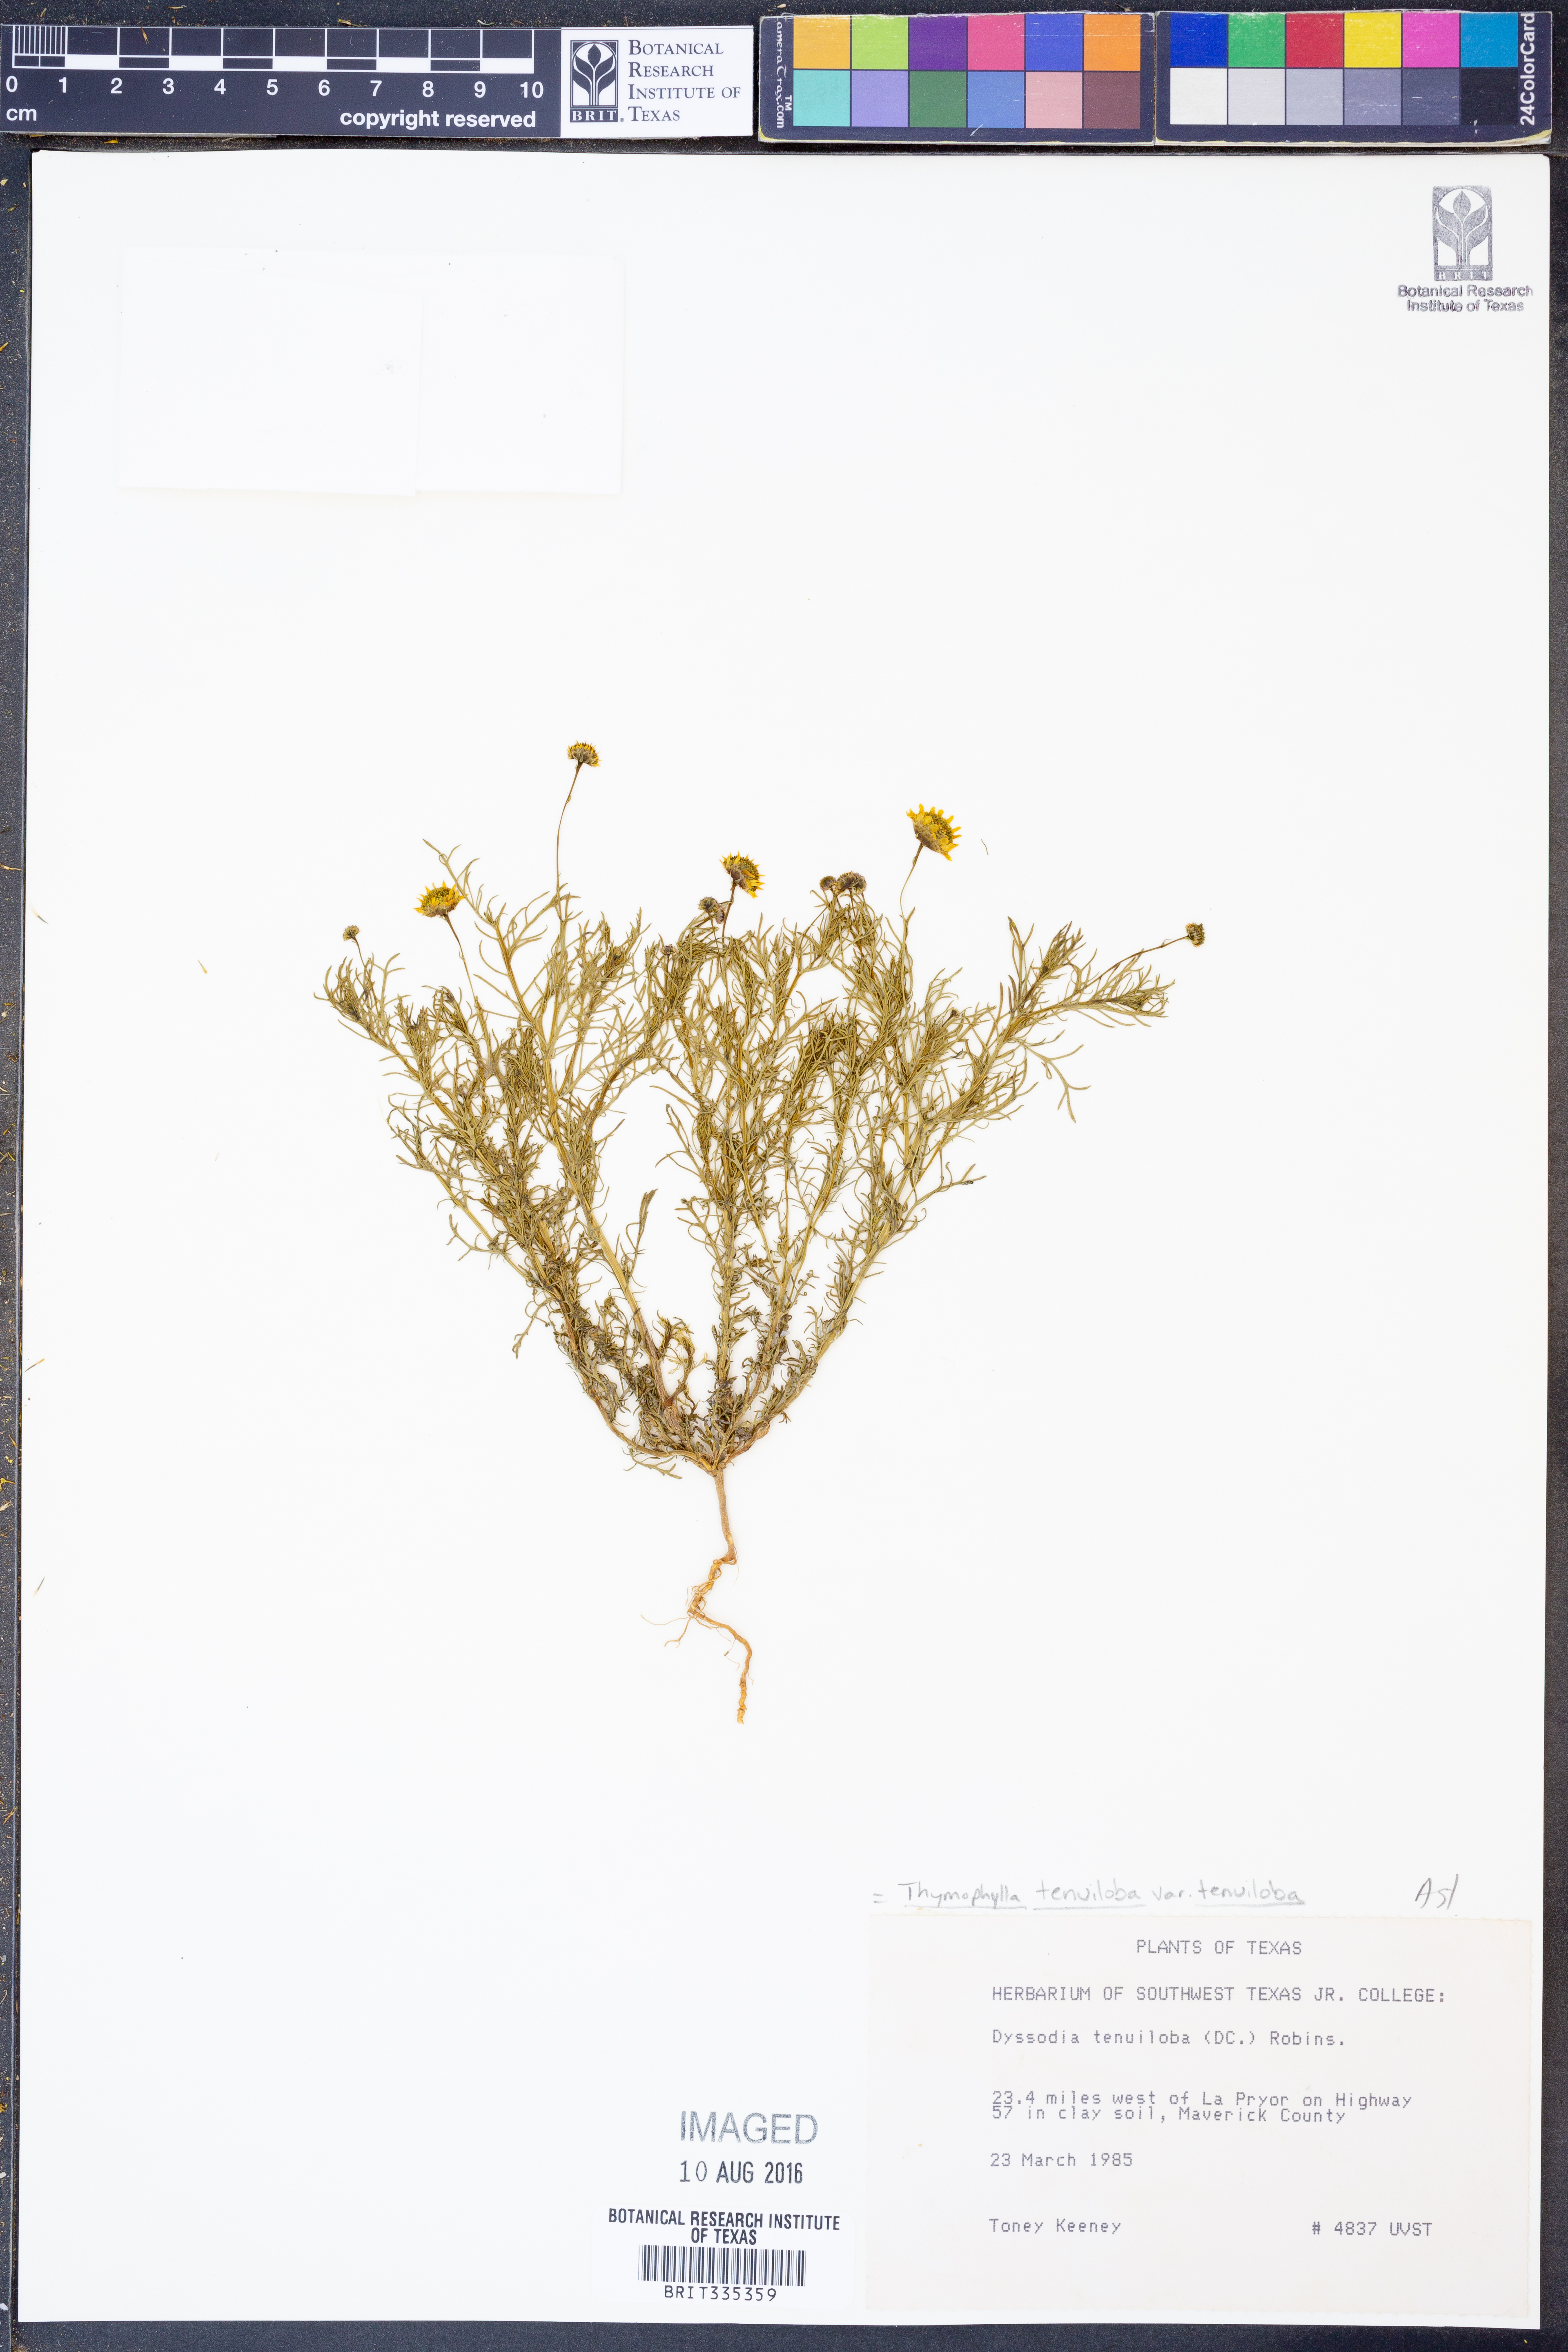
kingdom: Plantae
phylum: Tracheophyta
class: Magnoliopsida
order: Asterales
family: Asteraceae
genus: Thymophylla
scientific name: Thymophylla tenuiloba
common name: Dahlberg's daisy
